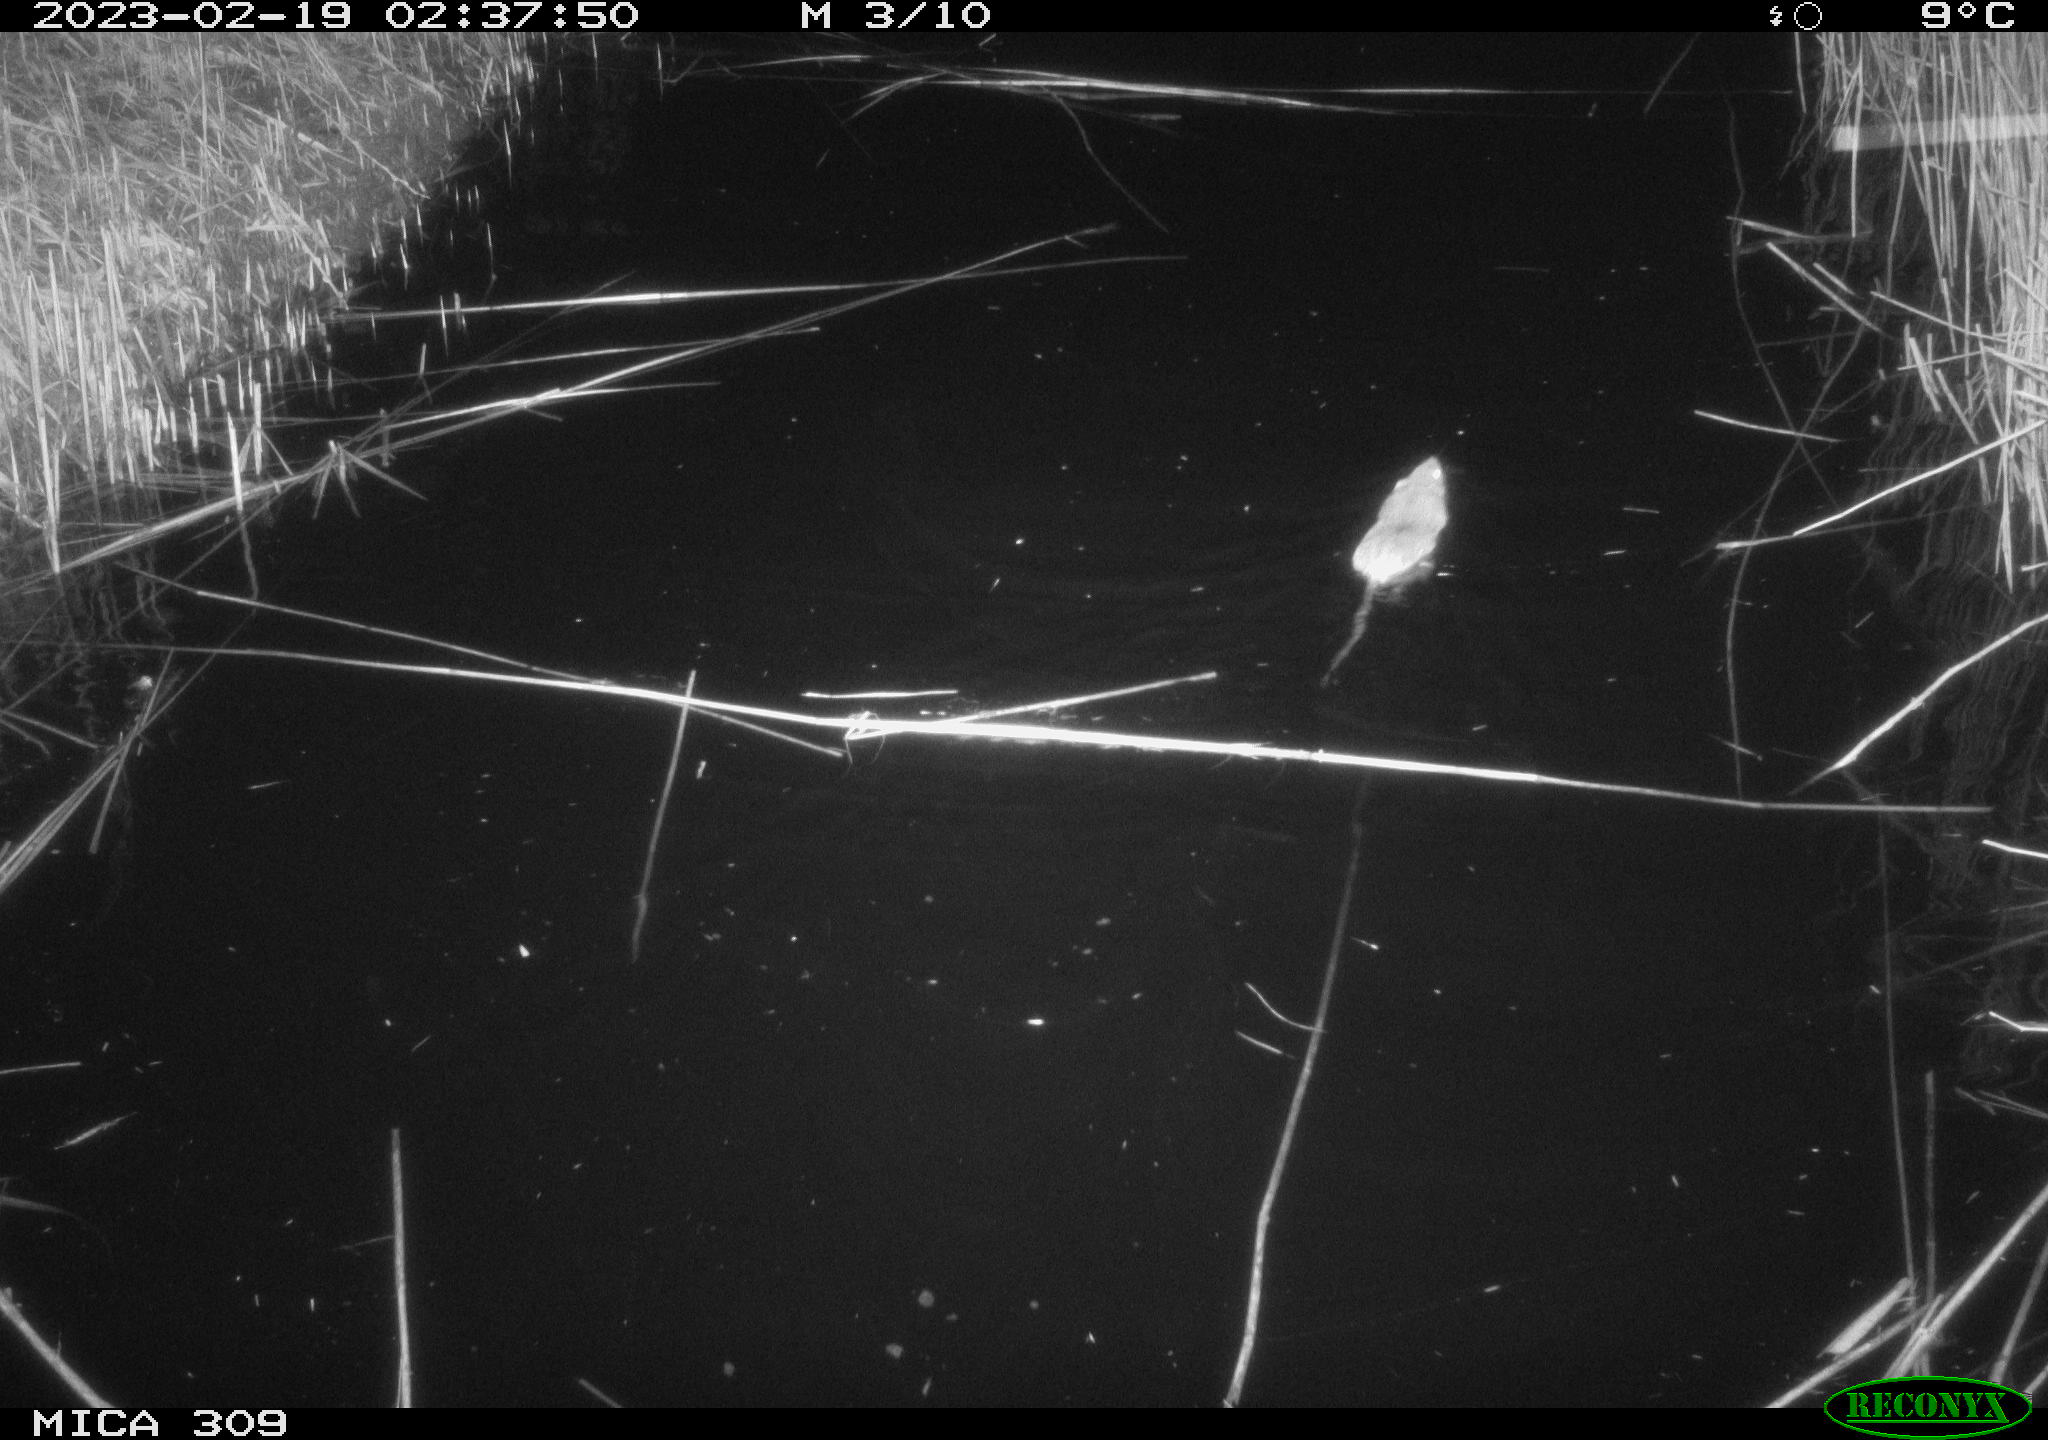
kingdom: Animalia
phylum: Chordata
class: Mammalia
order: Rodentia
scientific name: Rodentia
